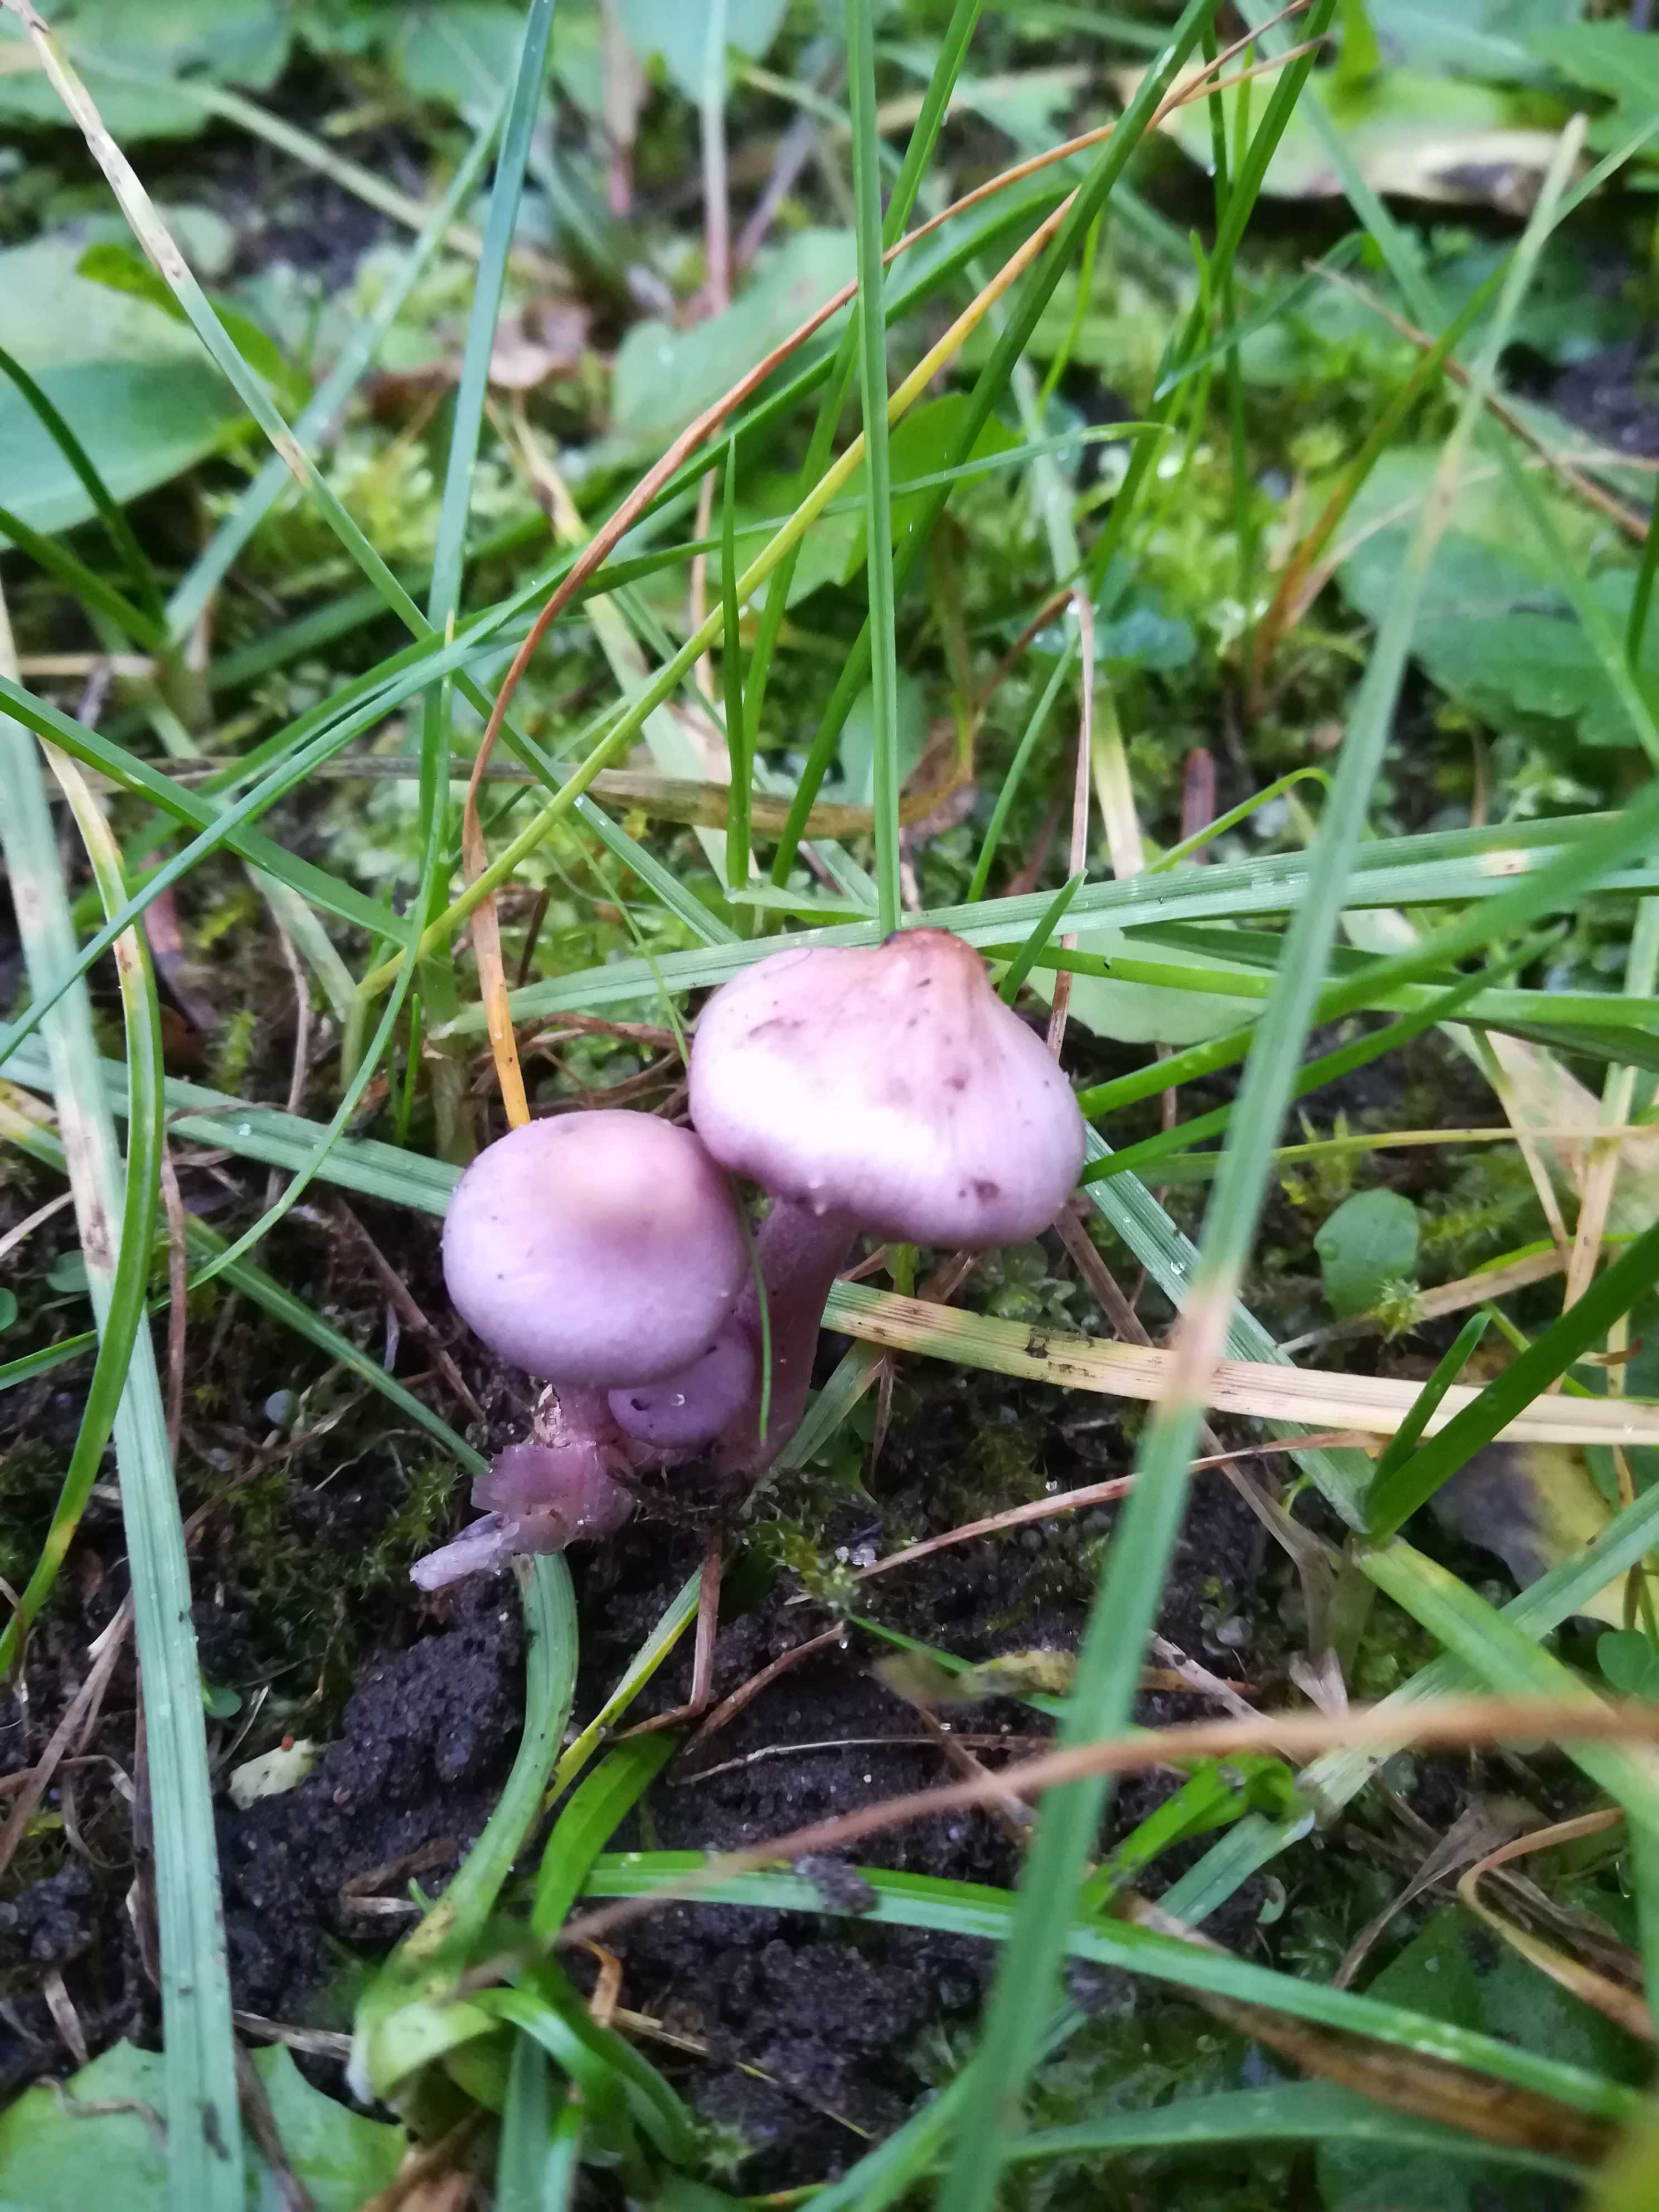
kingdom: Fungi
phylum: Basidiomycota
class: Agaricomycetes
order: Agaricales
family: Inocybaceae
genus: Inocybe
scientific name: Inocybe geophylla
